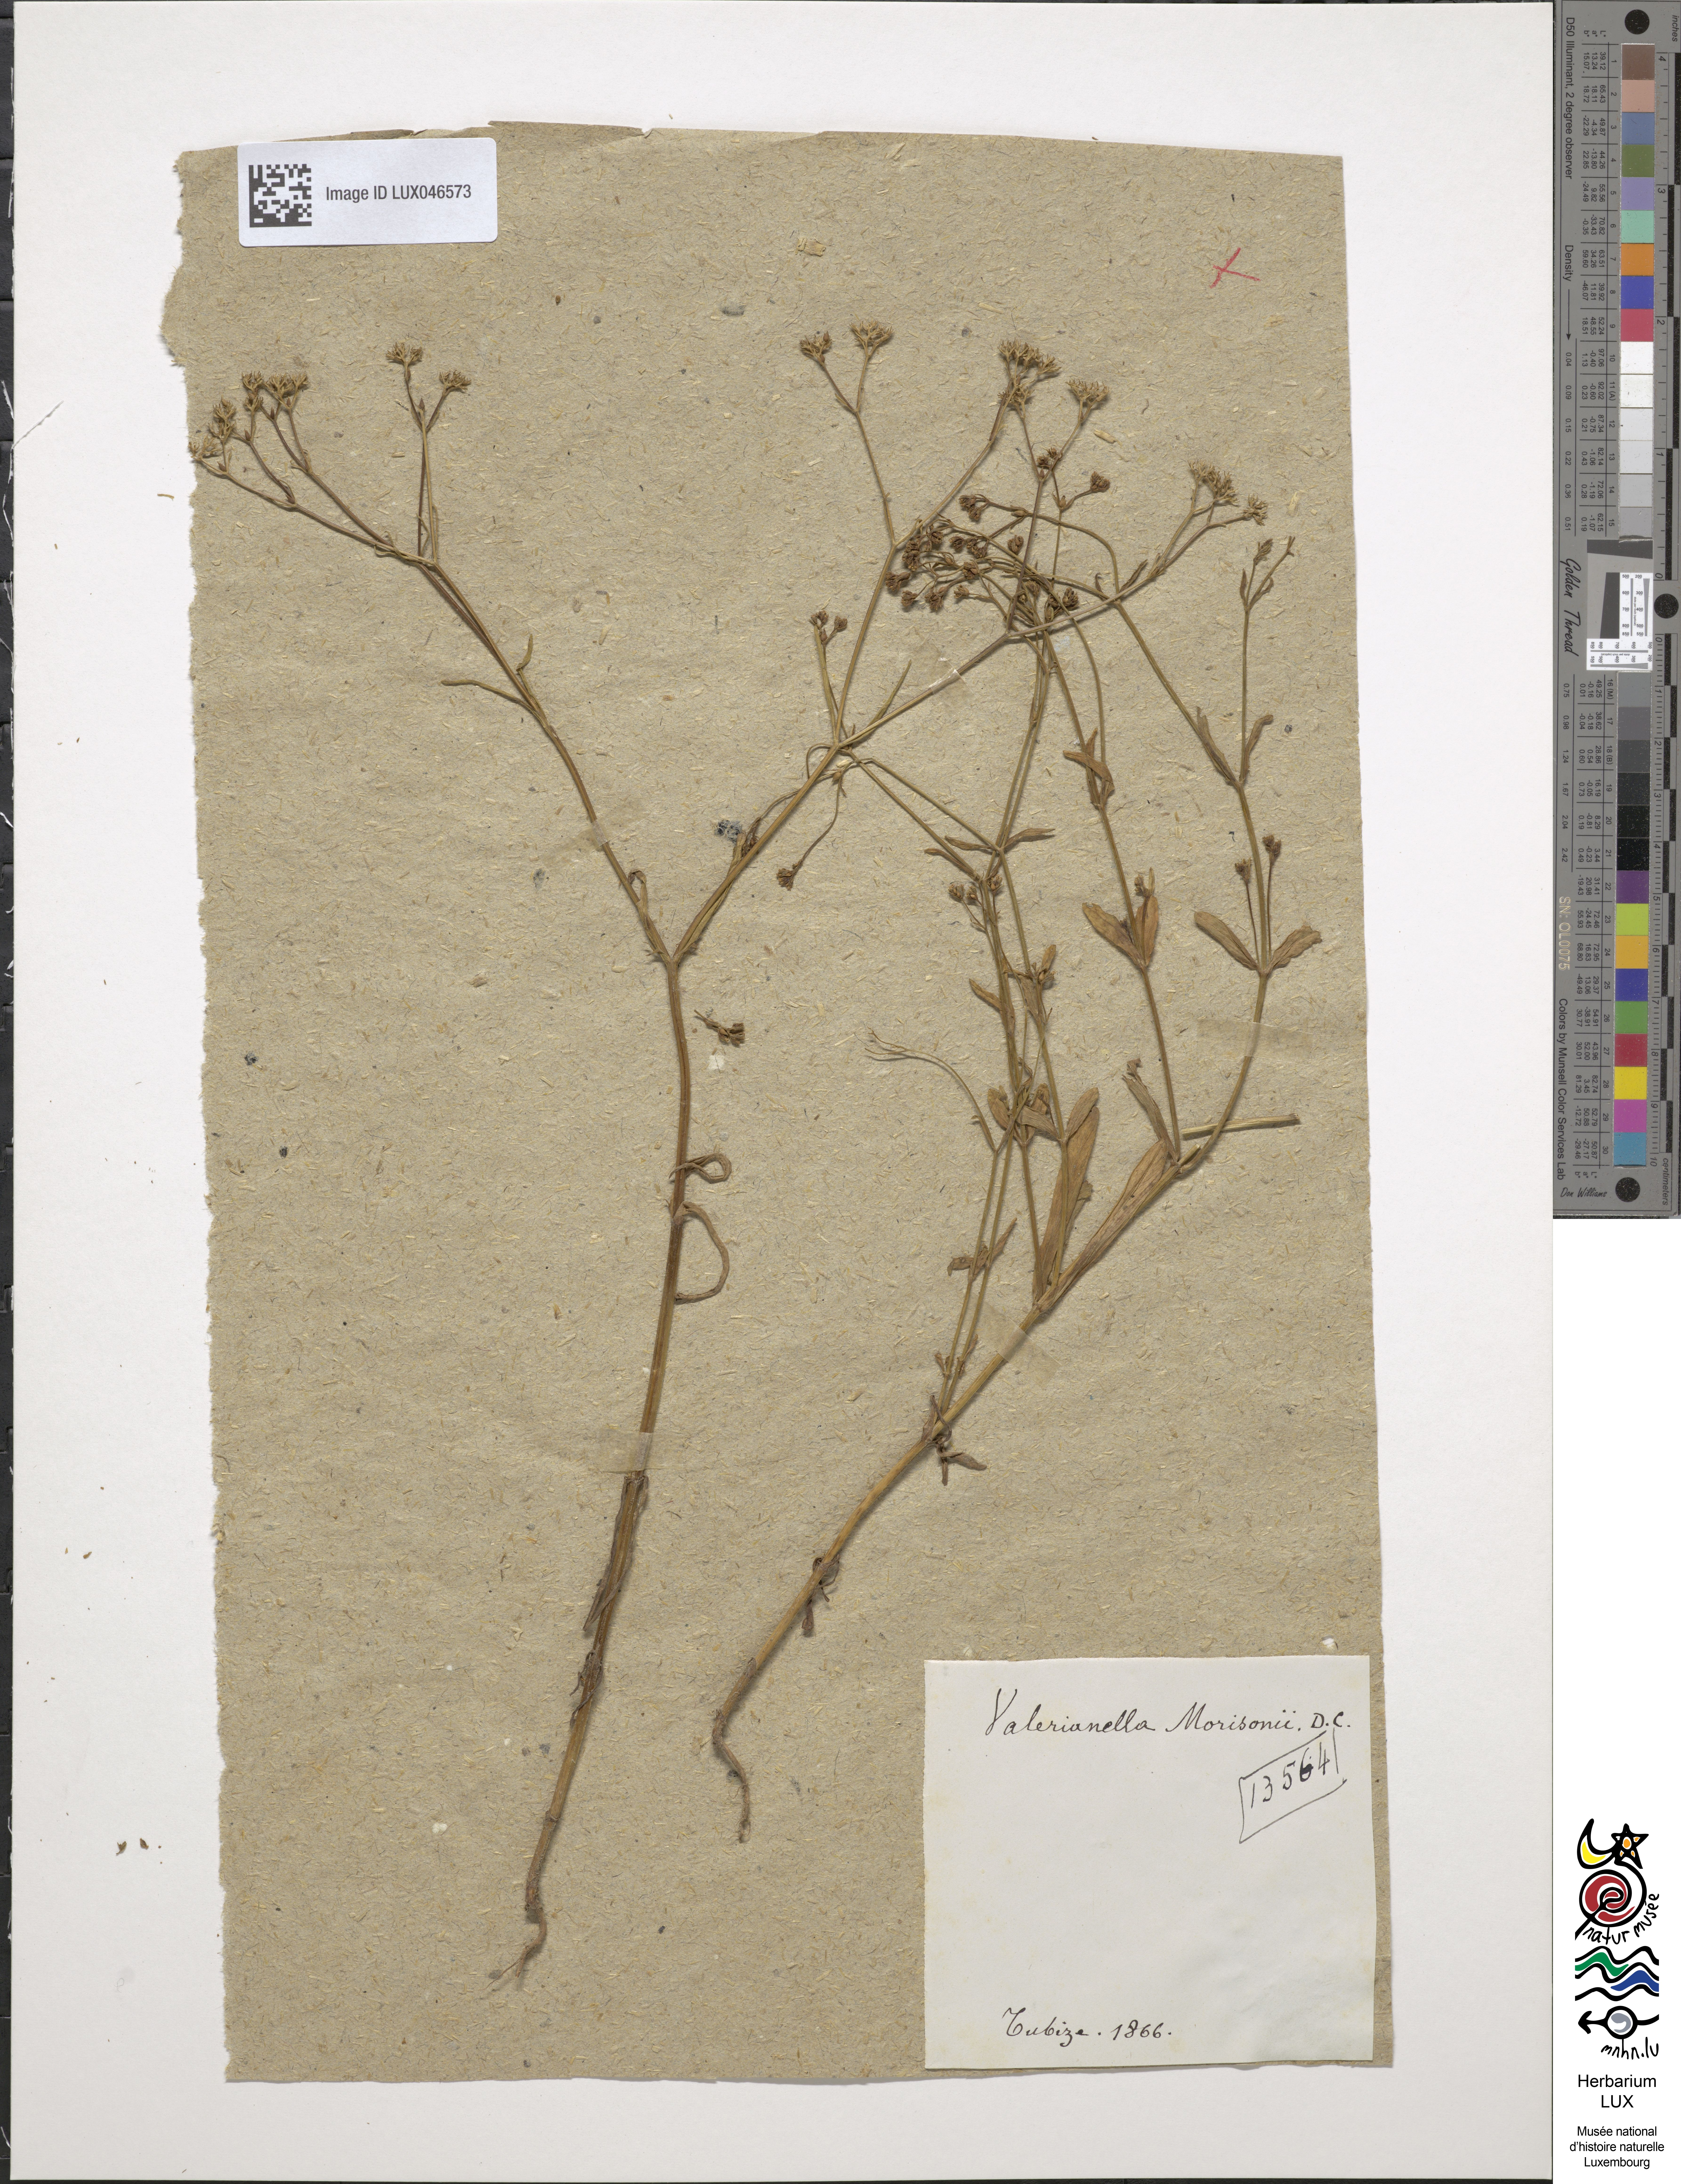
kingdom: Plantae
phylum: Tracheophyta
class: Magnoliopsida
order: Dipsacales
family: Caprifoliaceae
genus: Valerianella
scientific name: Valerianella dentata
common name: Narrow-fruited cornsalad
